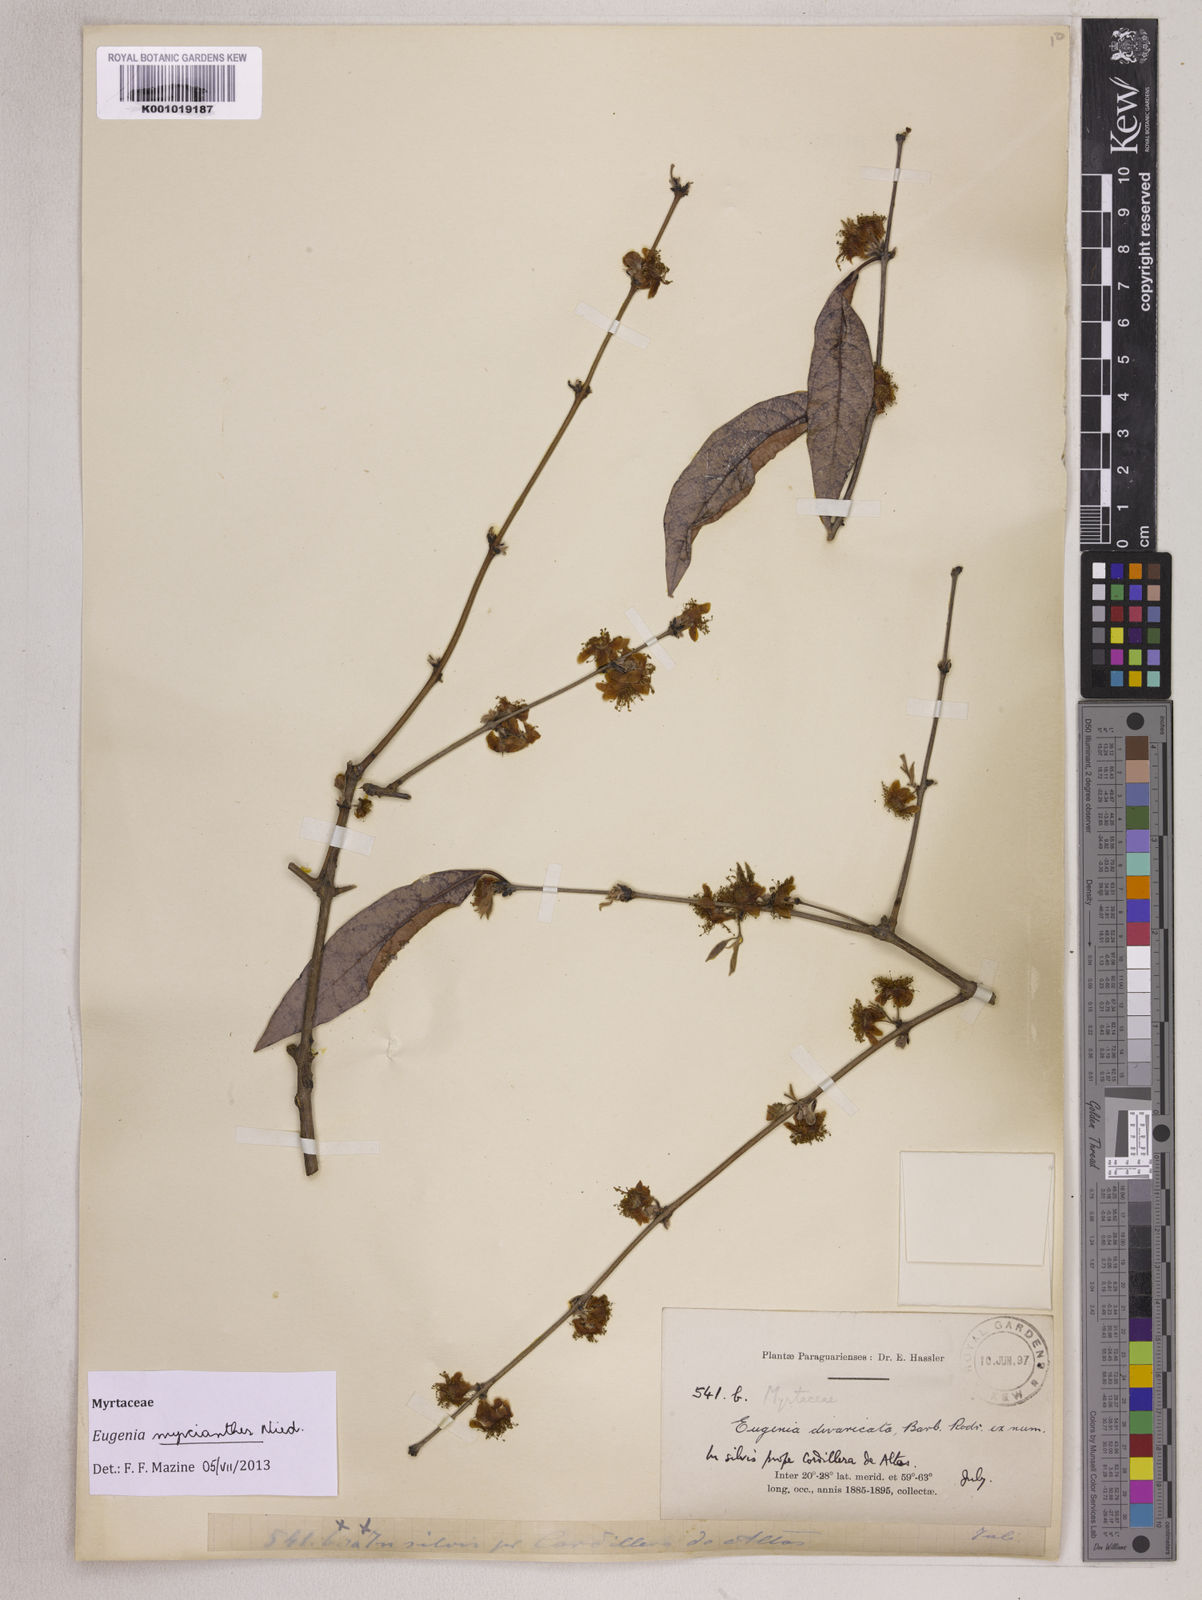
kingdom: Plantae
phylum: Tracheophyta
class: Magnoliopsida
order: Myrtales
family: Myrtaceae
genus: Eugenia
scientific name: Eugenia myrcianthes
